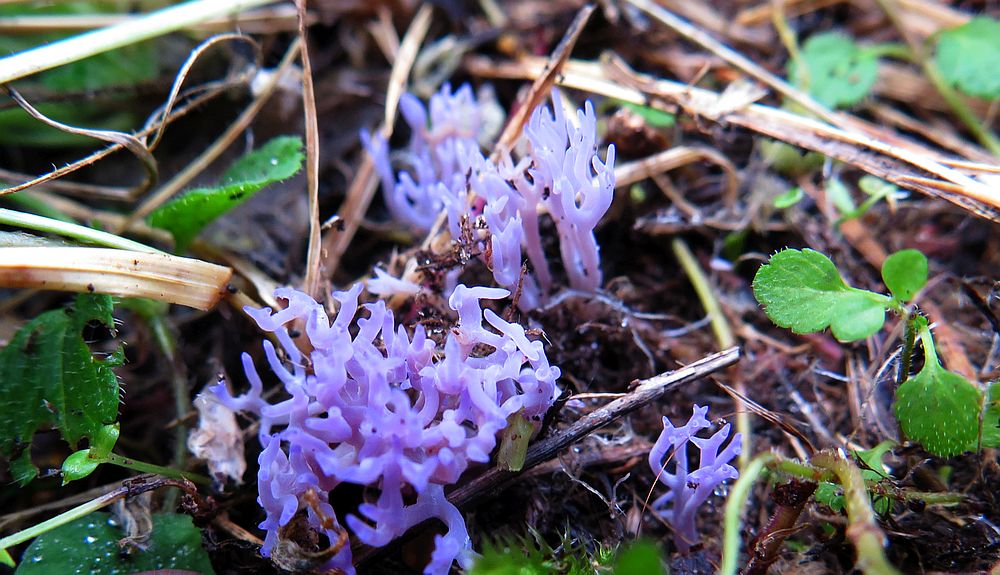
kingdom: Fungi
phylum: Basidiomycota
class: Agaricomycetes
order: Agaricales
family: Clavariaceae
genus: Ramariopsis
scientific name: Ramariopsis pulchella
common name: violet køllesvamp
